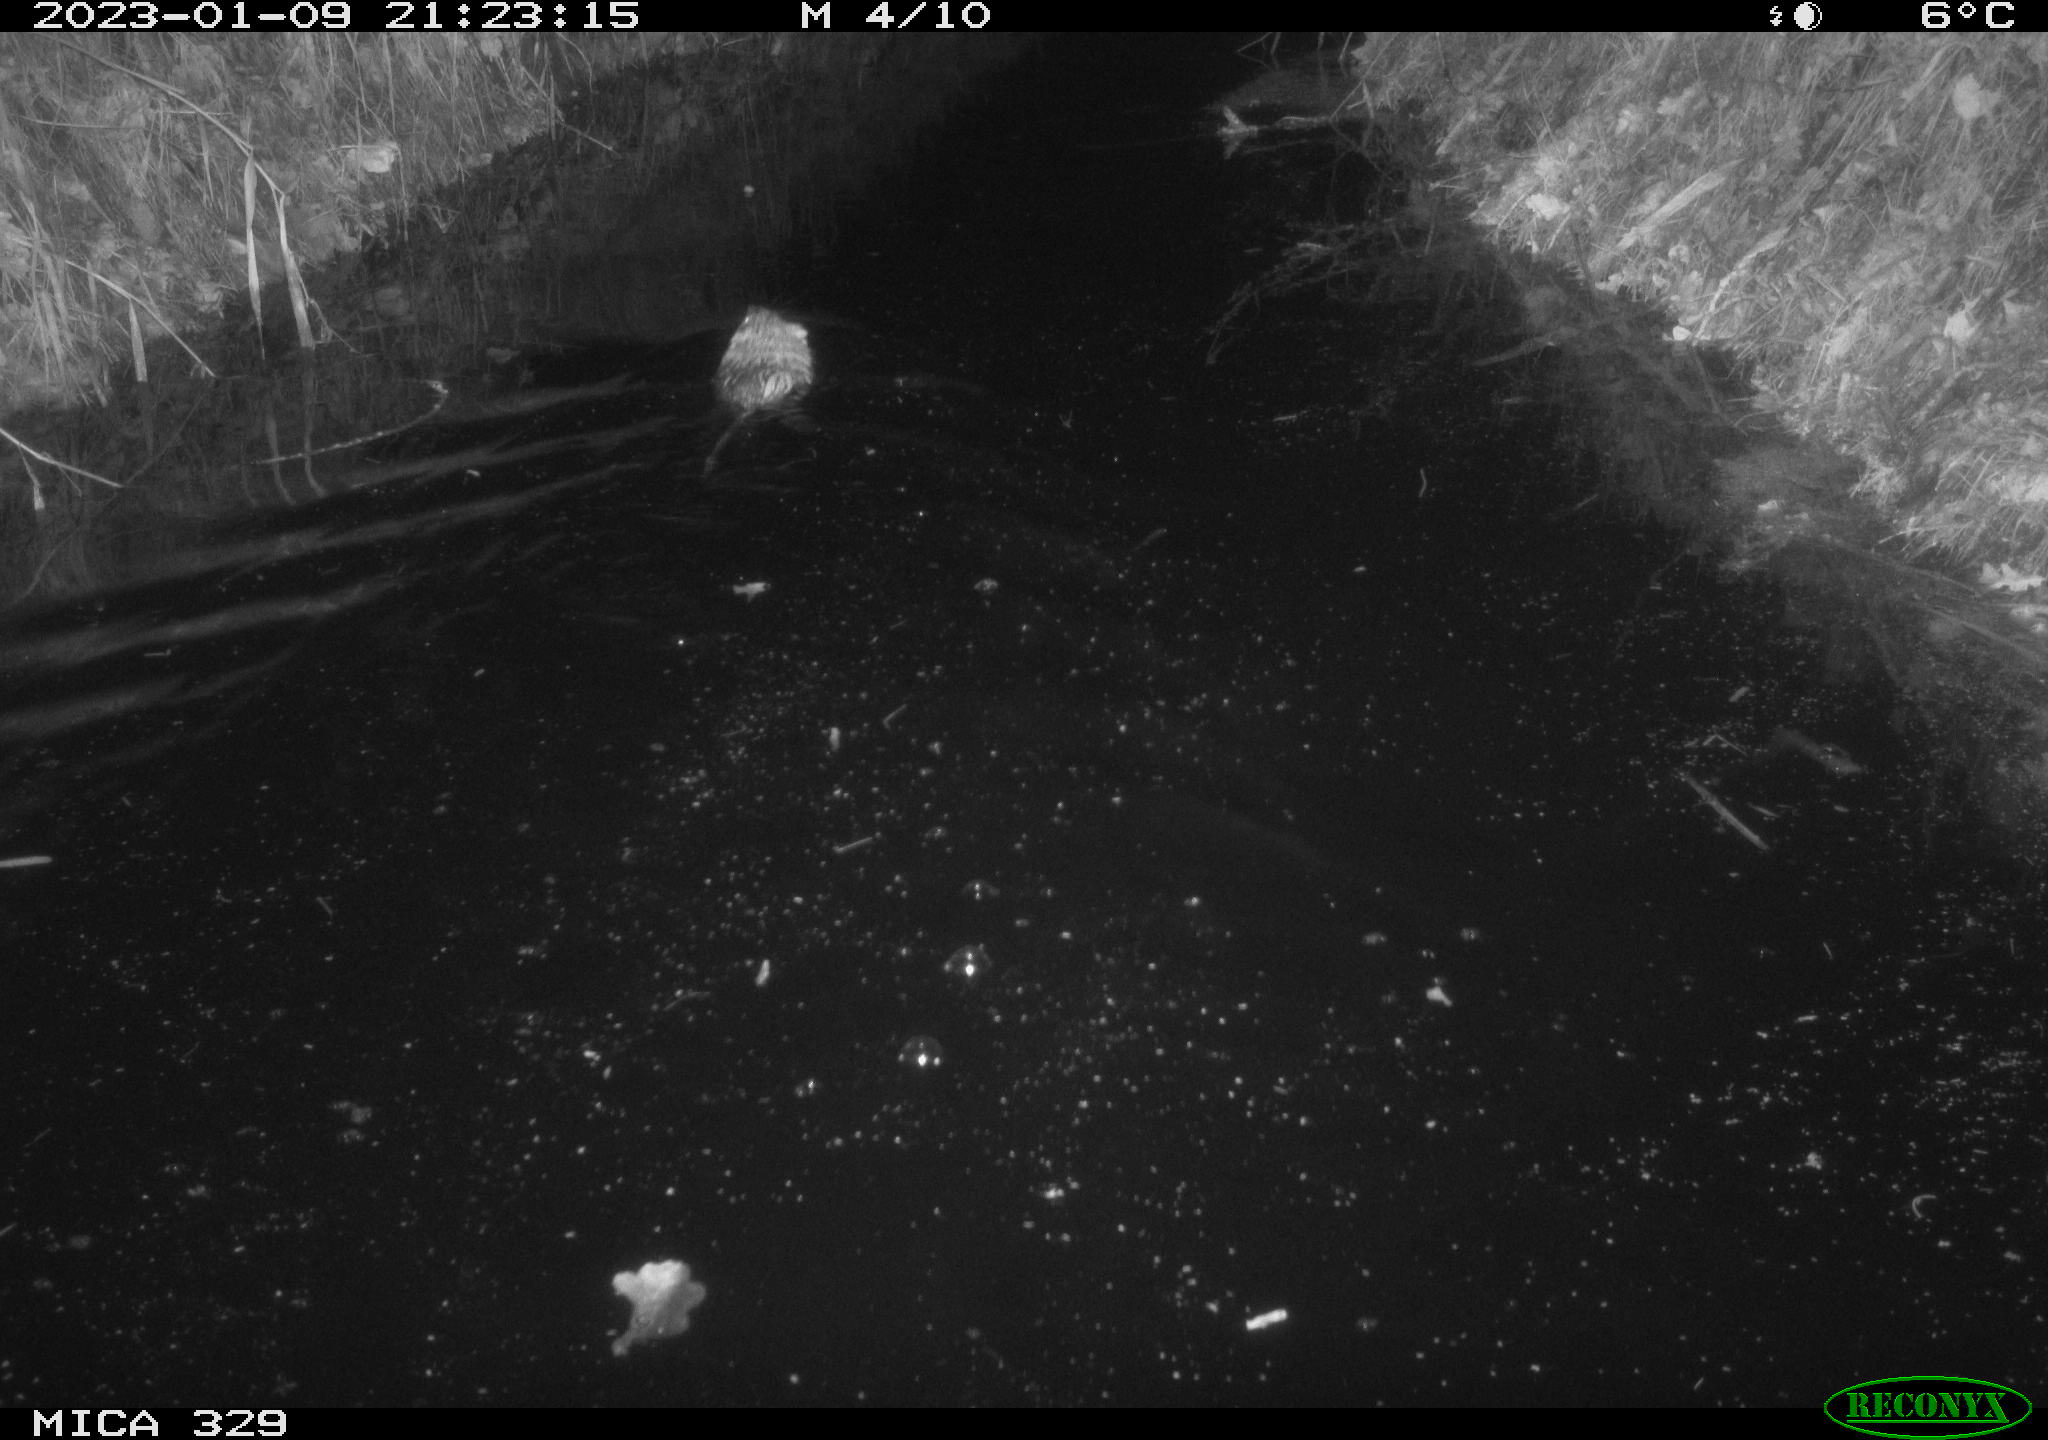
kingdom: Animalia
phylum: Chordata
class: Mammalia
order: Rodentia
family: Cricetidae
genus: Ondatra
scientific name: Ondatra zibethicus
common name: Muskrat
